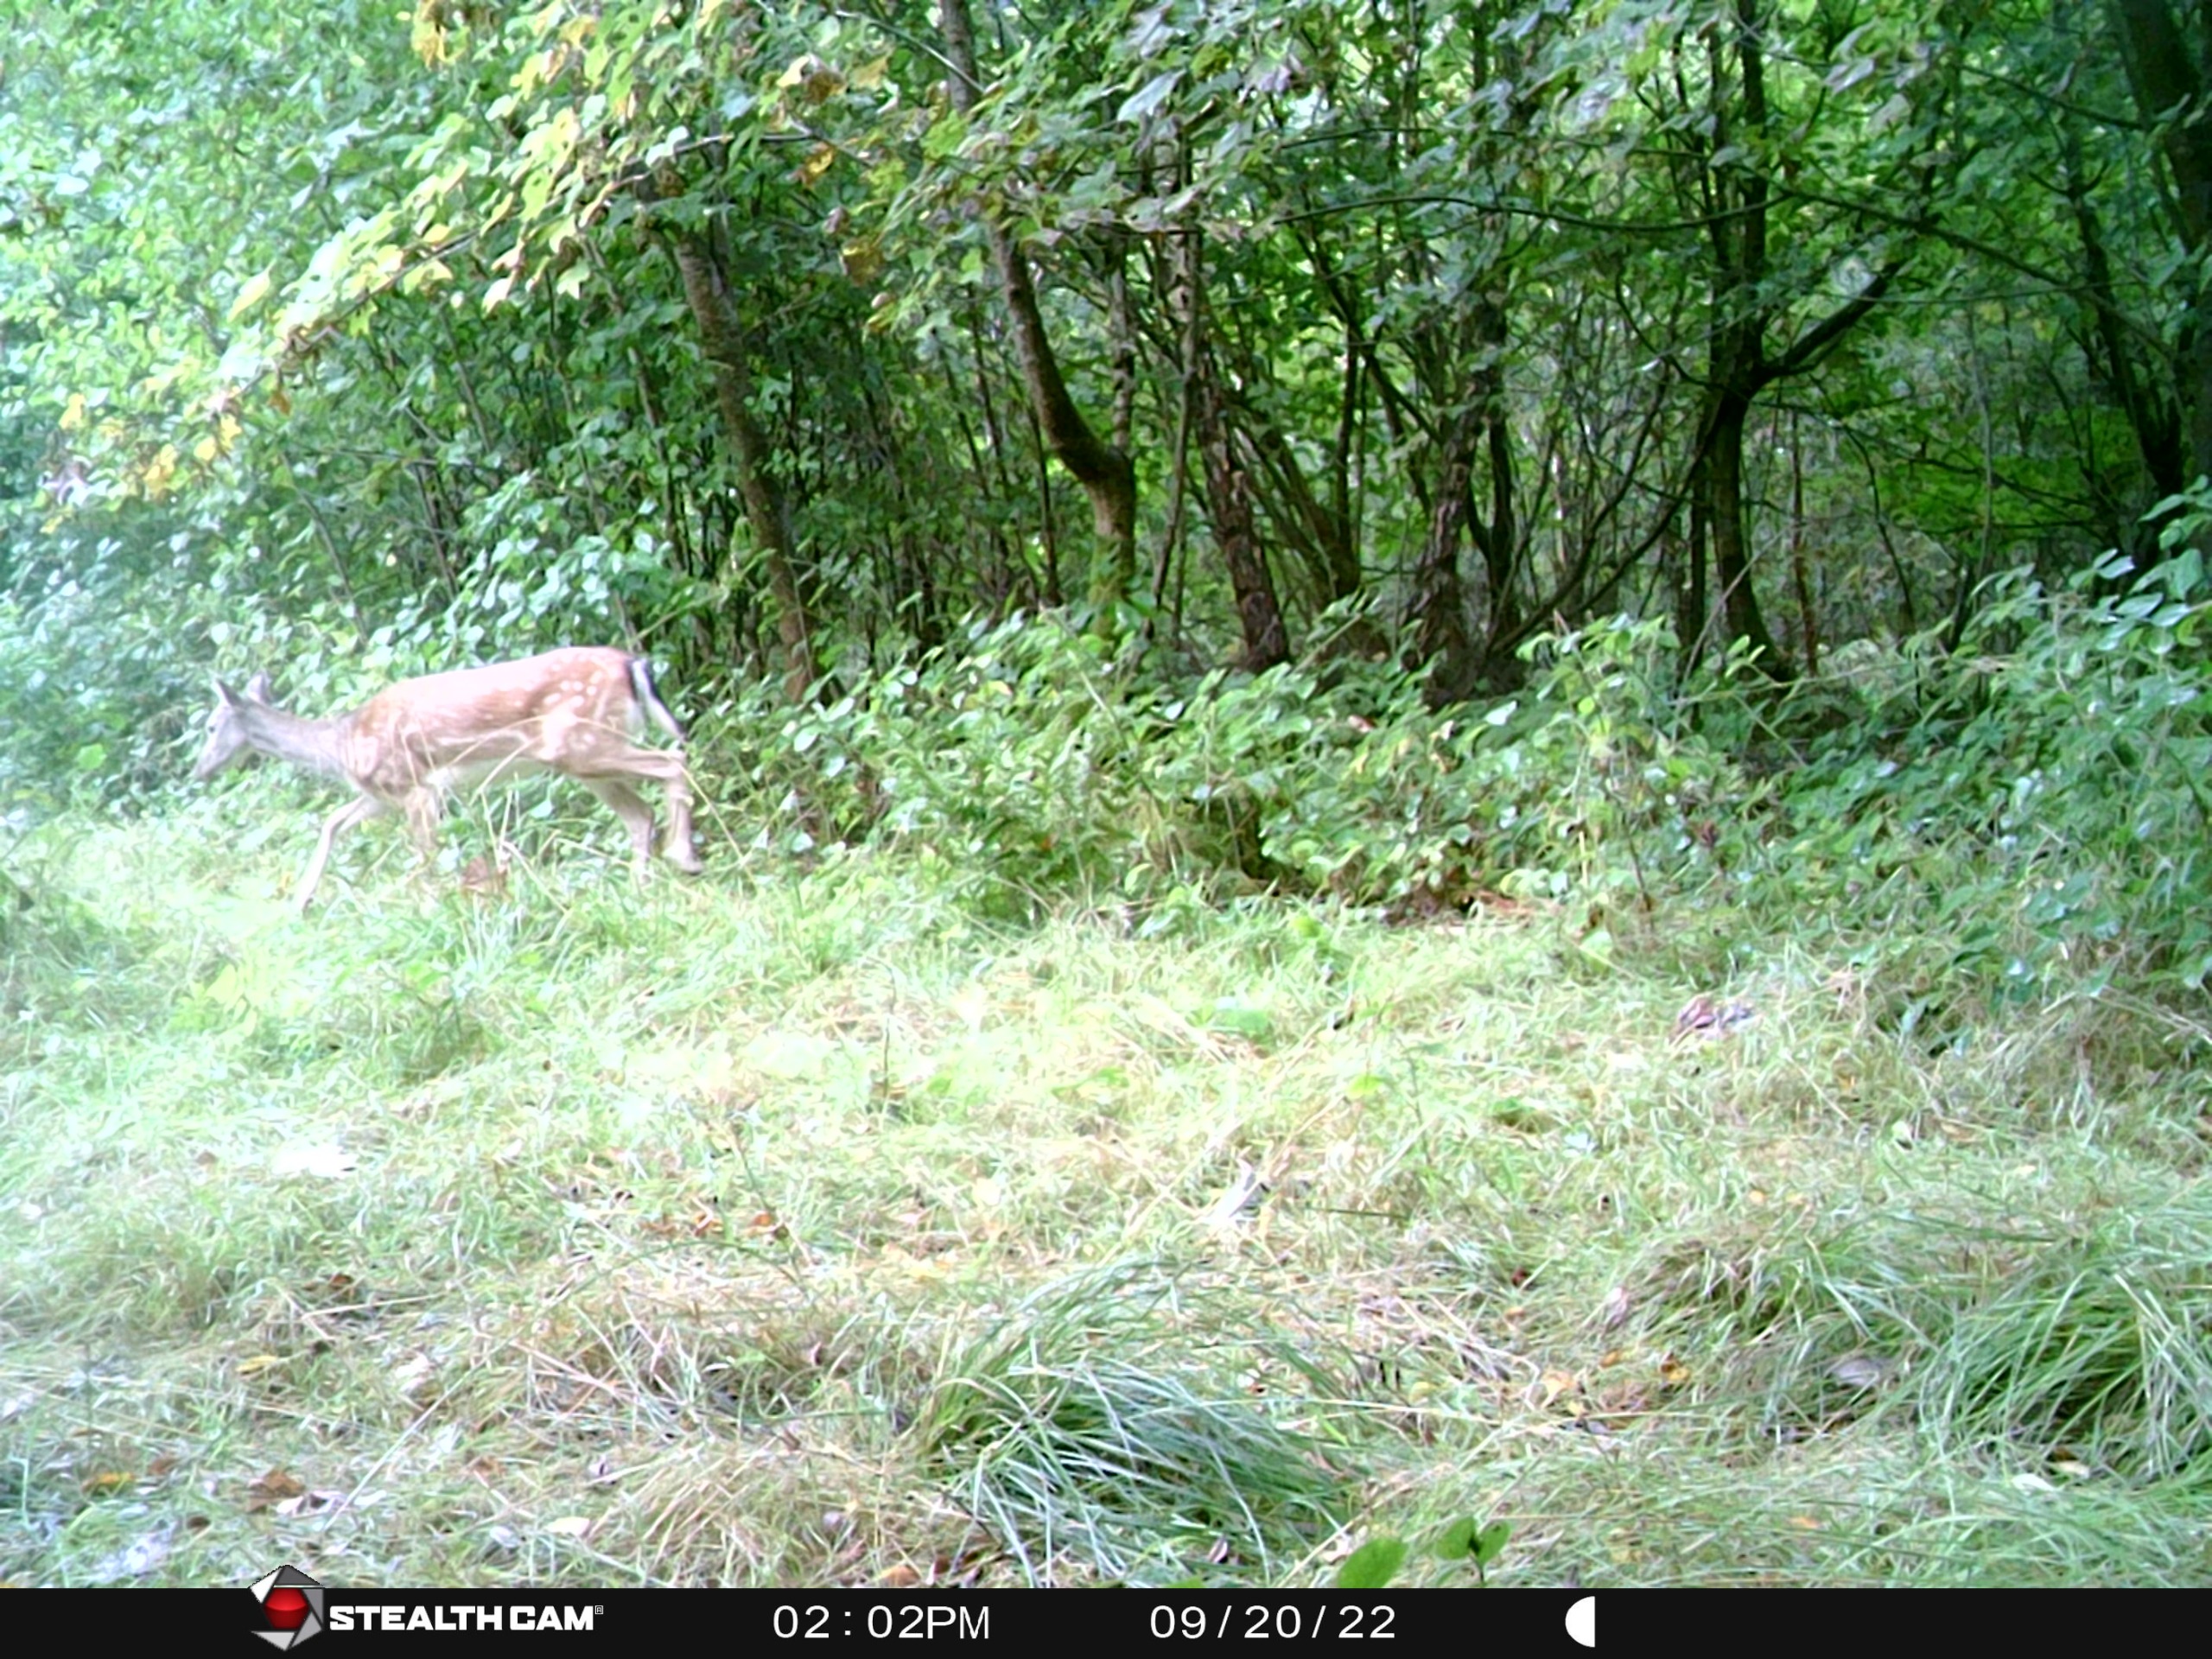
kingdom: Animalia
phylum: Chordata
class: Mammalia
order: Artiodactyla
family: Cervidae
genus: Dama
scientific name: Dama dama
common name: Dådyr
